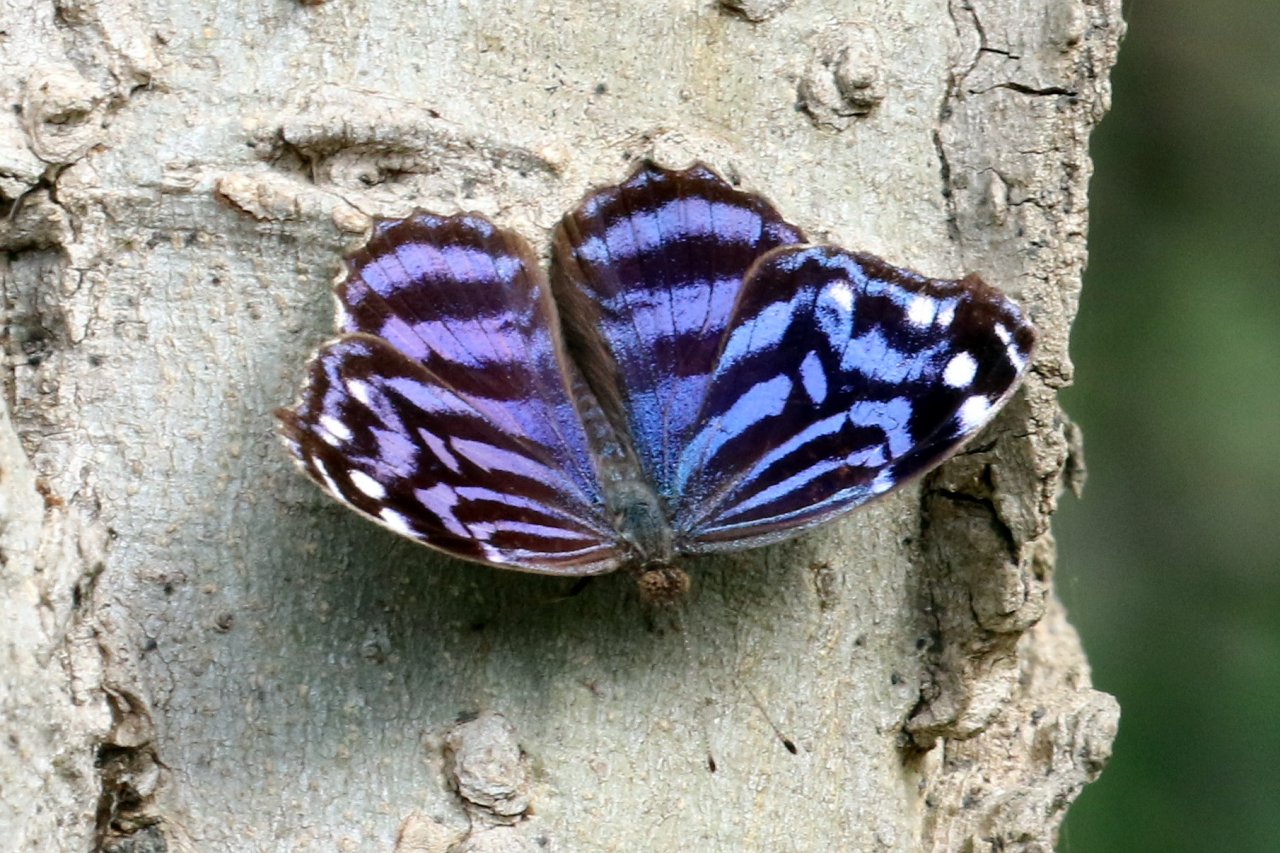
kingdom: Animalia
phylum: Arthropoda
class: Insecta
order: Lepidoptera
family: Nymphalidae
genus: Myscelia
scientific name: Myscelia ethusa
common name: Mexican Bluewing
